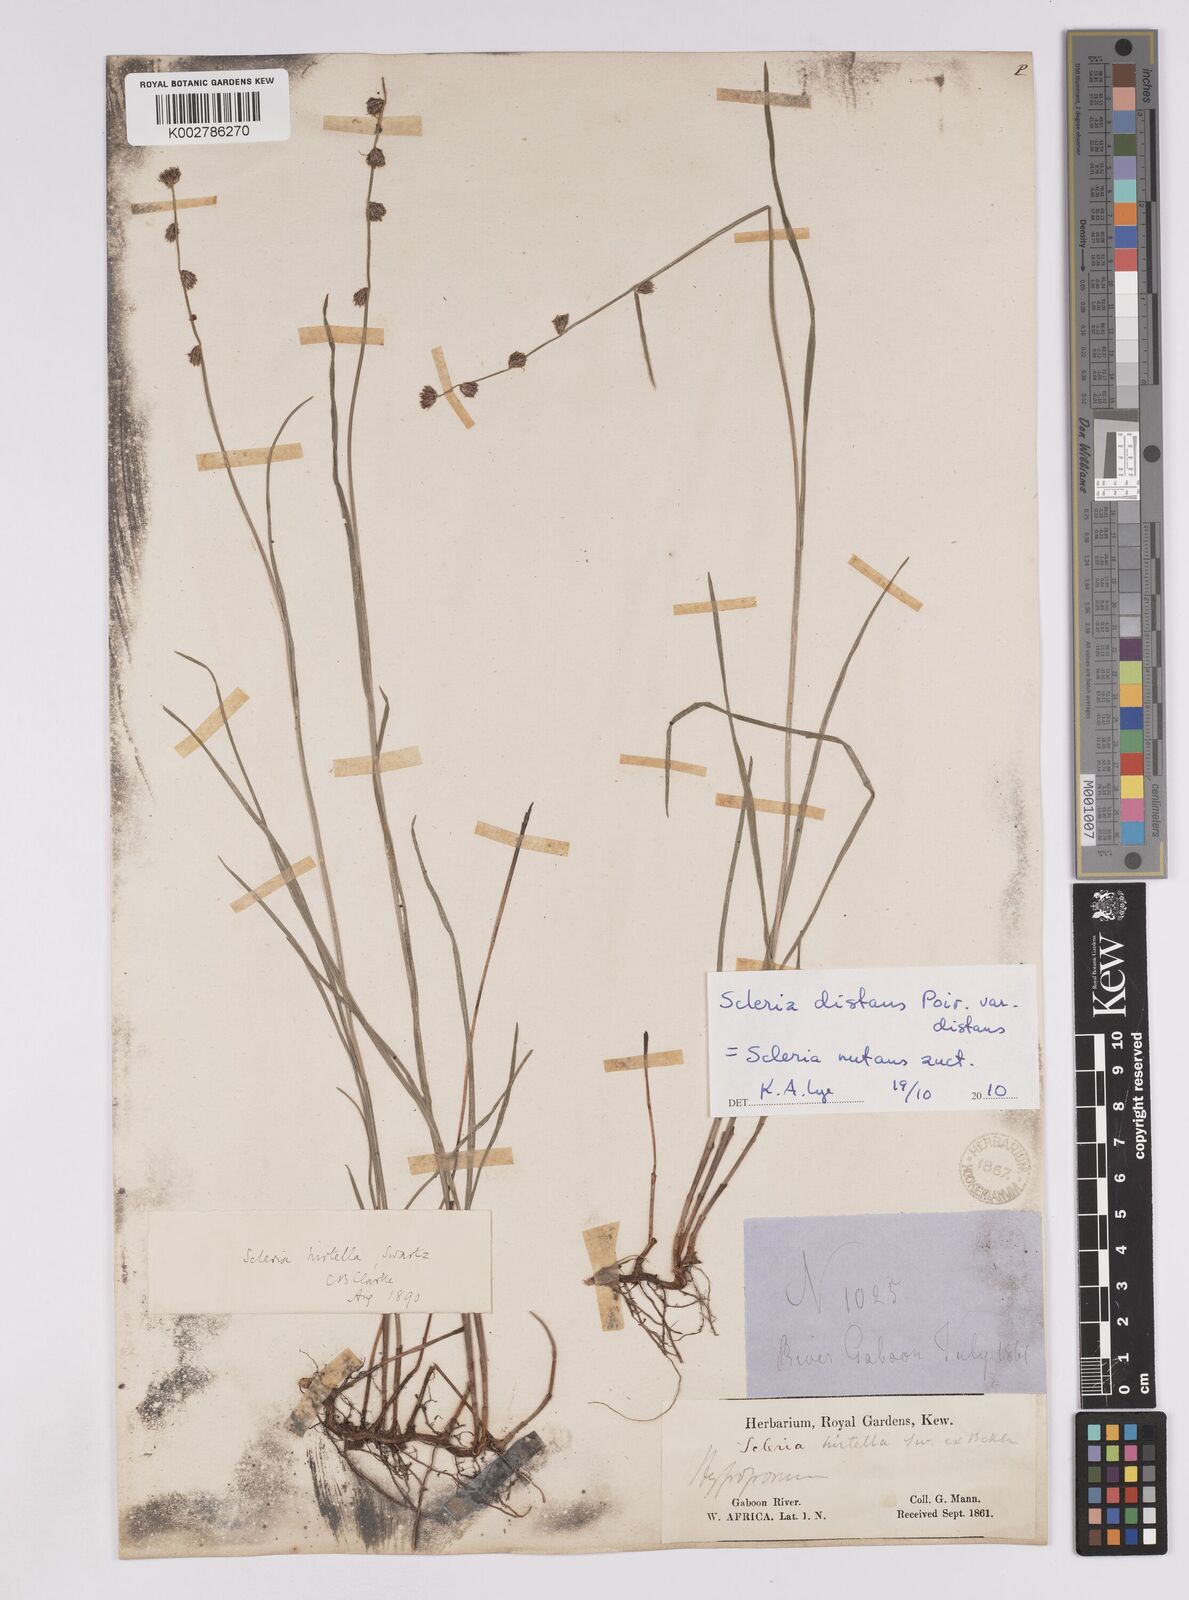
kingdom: Plantae
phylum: Tracheophyta
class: Liliopsida
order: Poales
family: Cyperaceae
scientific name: Cyperaceae
